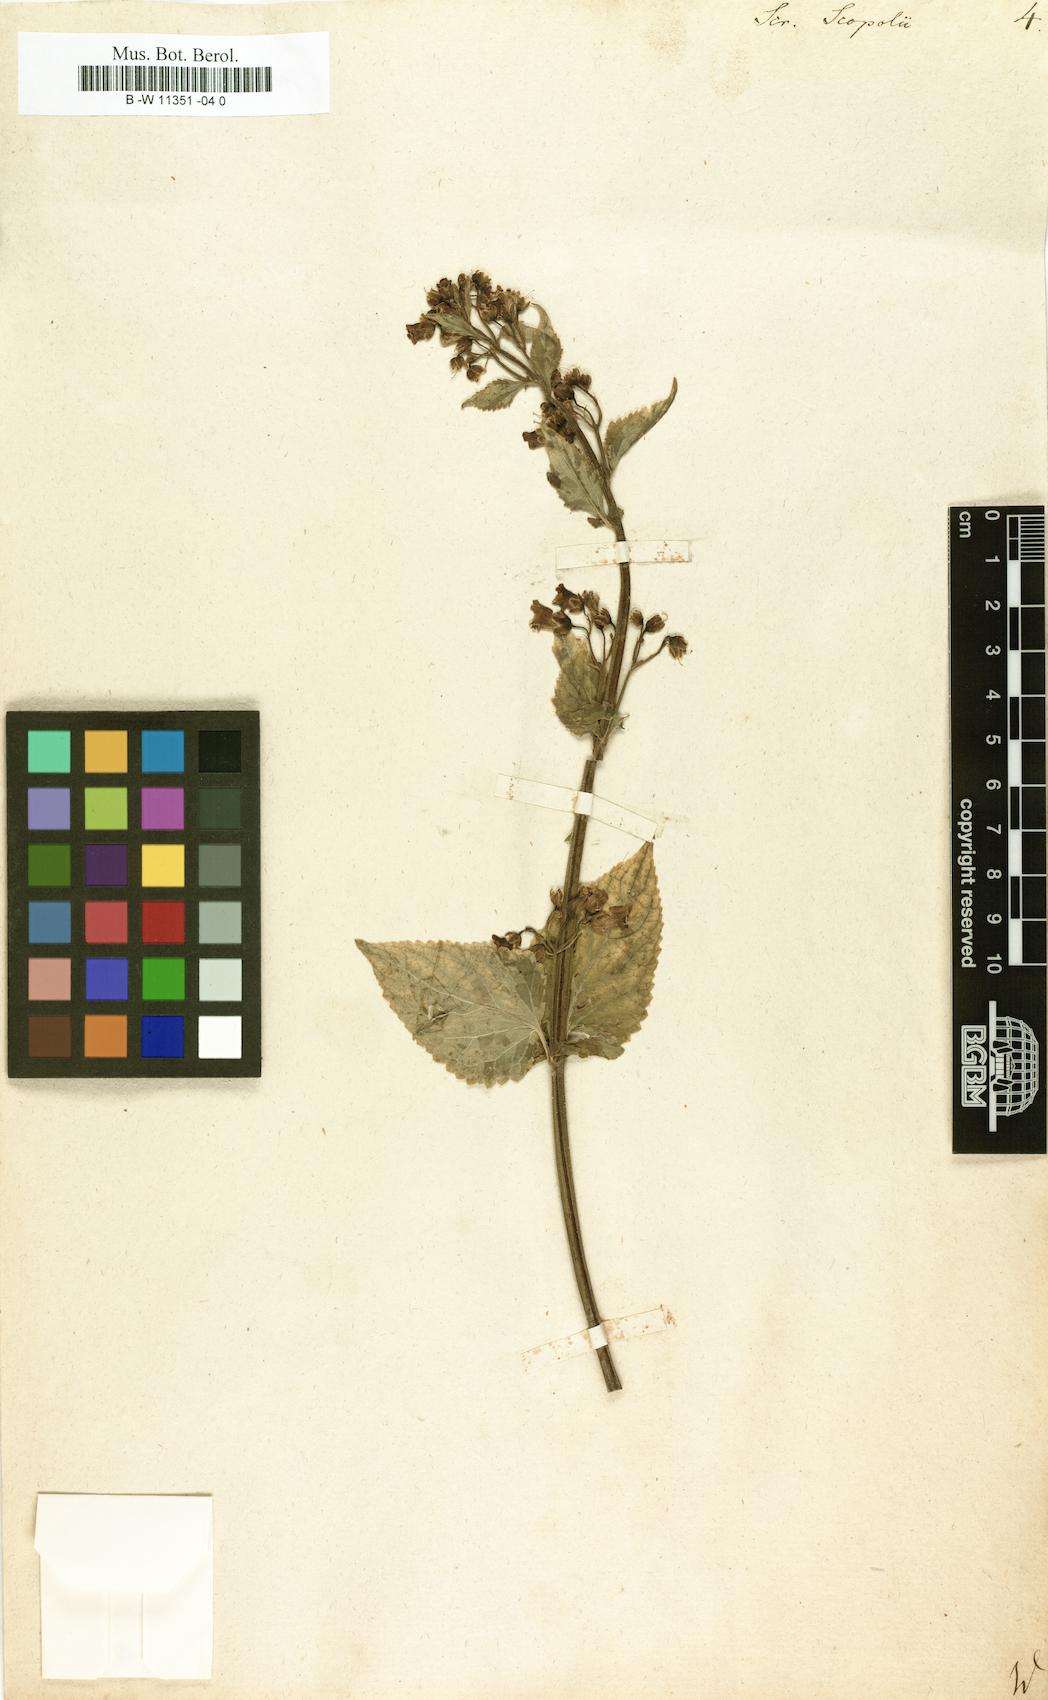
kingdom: Plantae
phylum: Tracheophyta
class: Magnoliopsida
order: Lamiales
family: Scrophulariaceae
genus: Scrophularia
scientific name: Scrophularia scopolii
